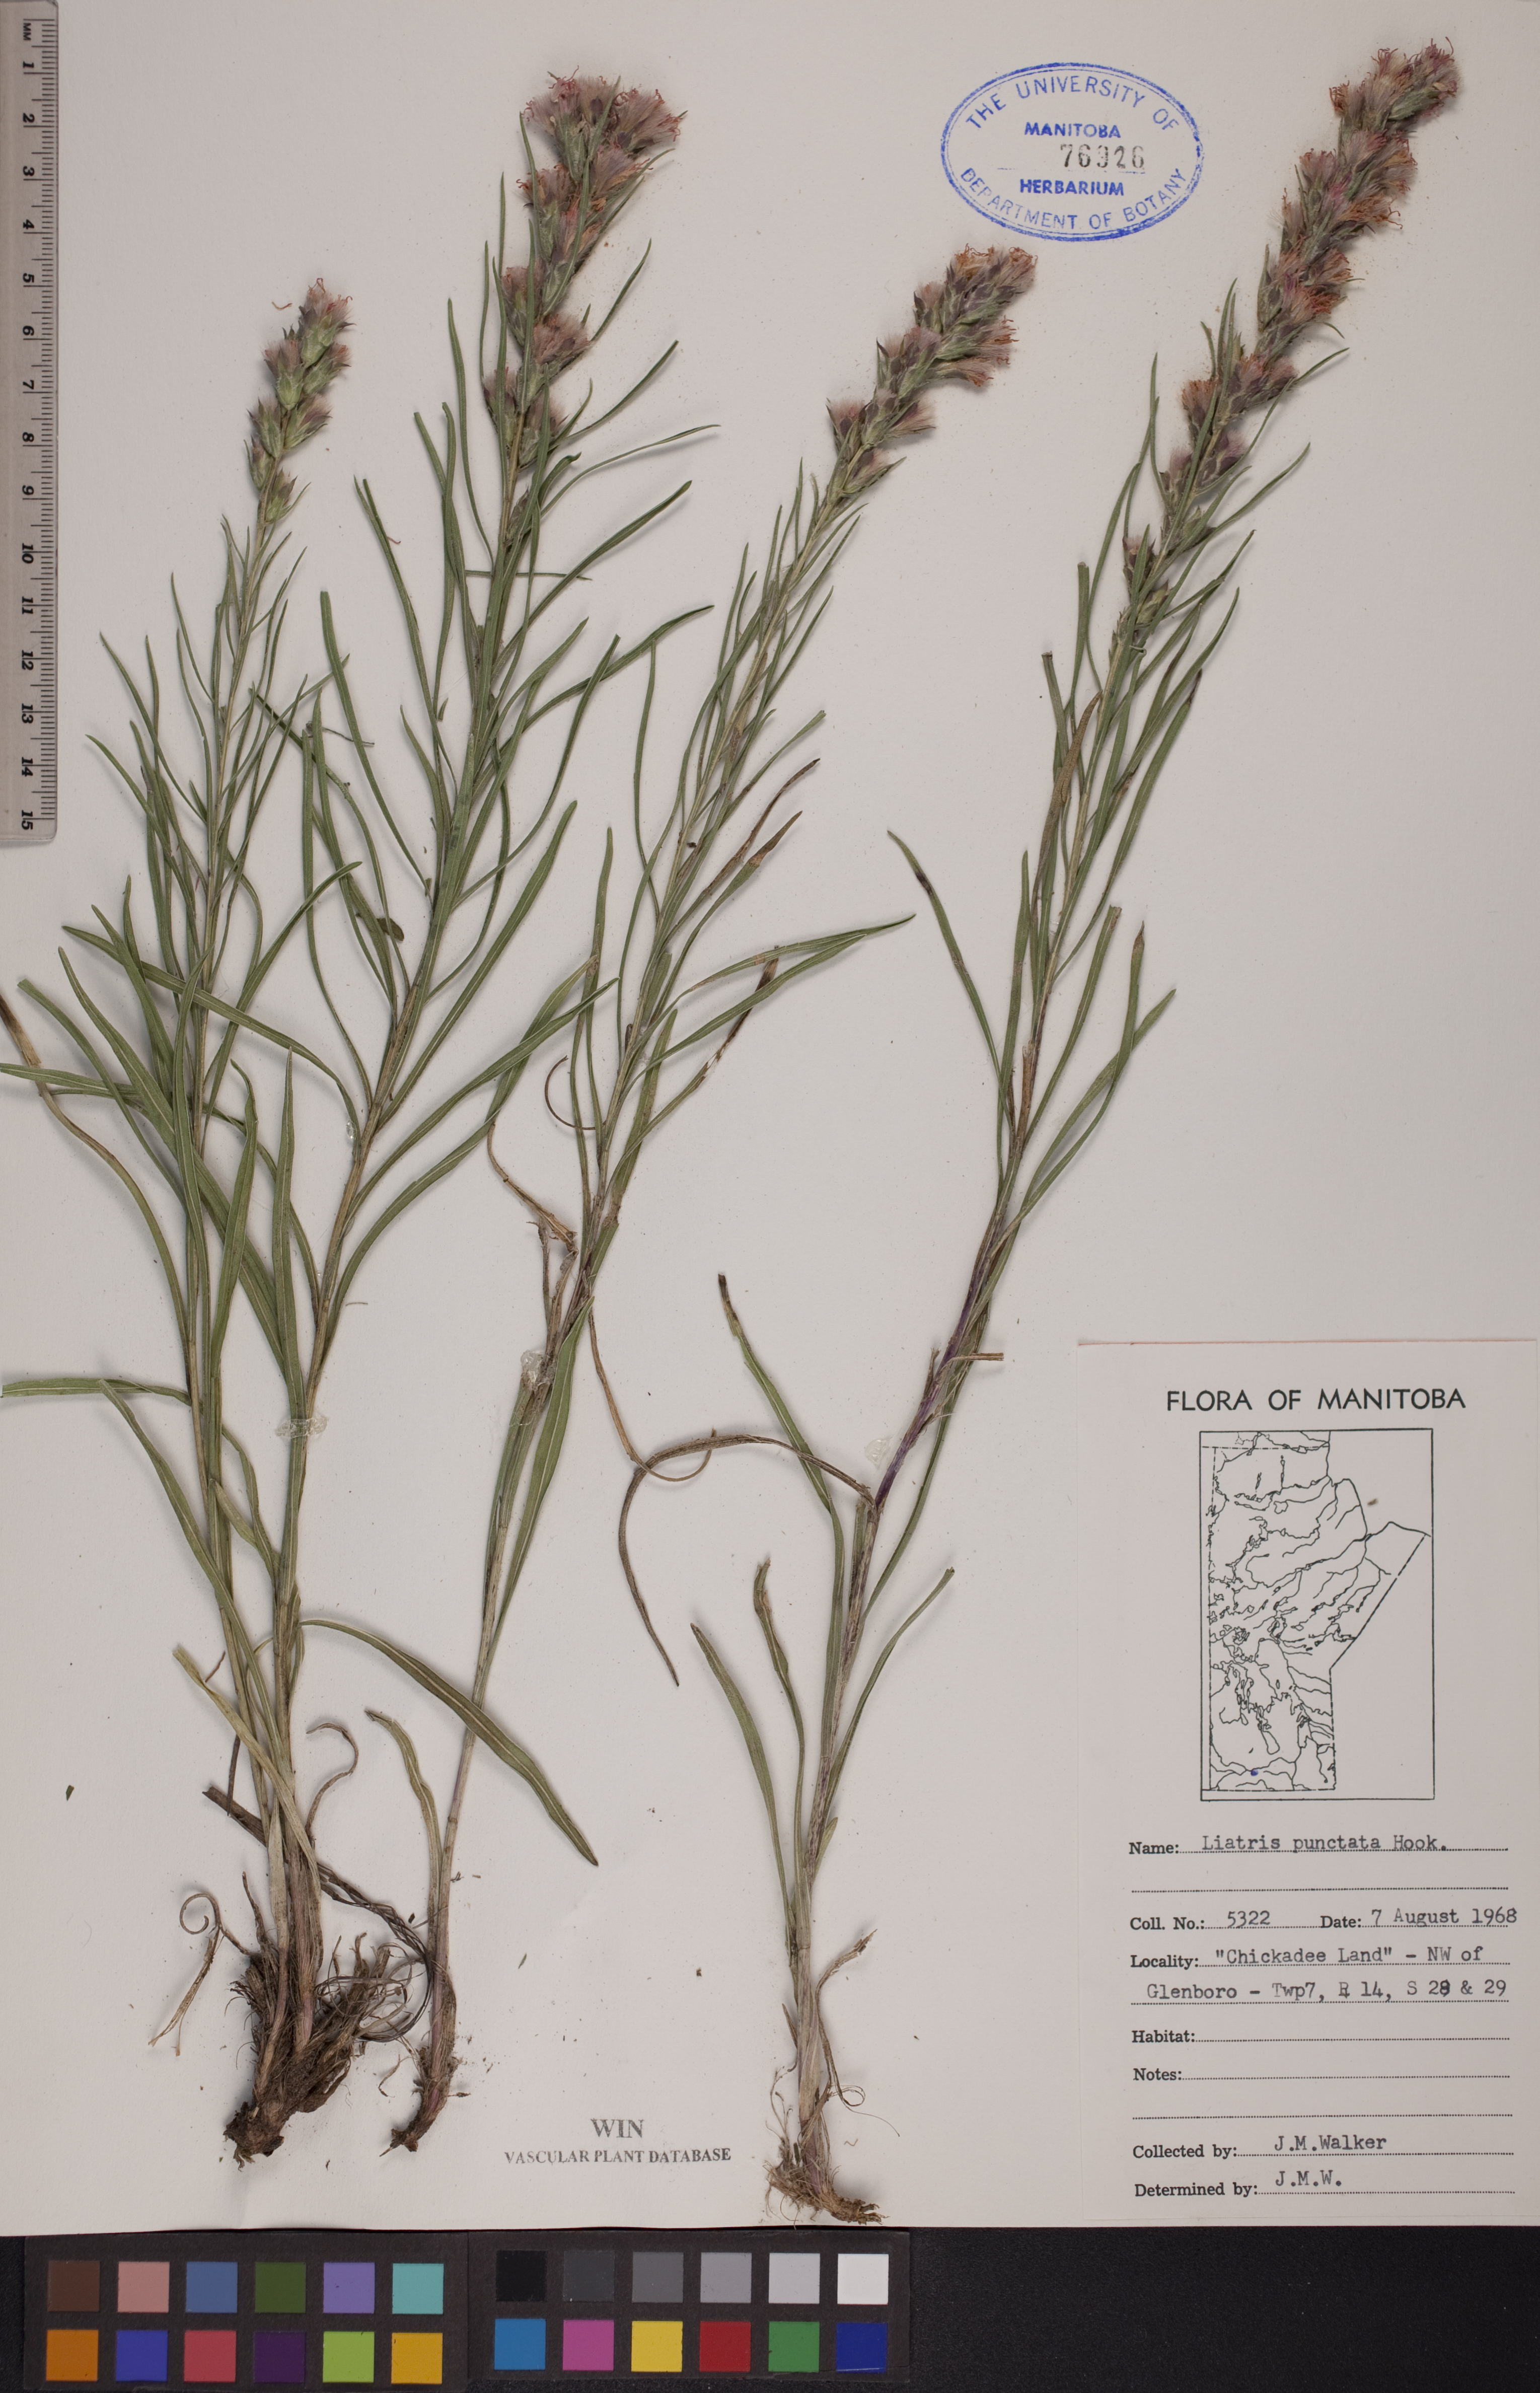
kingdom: Plantae
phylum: Tracheophyta
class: Magnoliopsida
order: Asterales
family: Asteraceae
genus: Liatris
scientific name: Liatris punctata
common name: Dotted gayfeather
